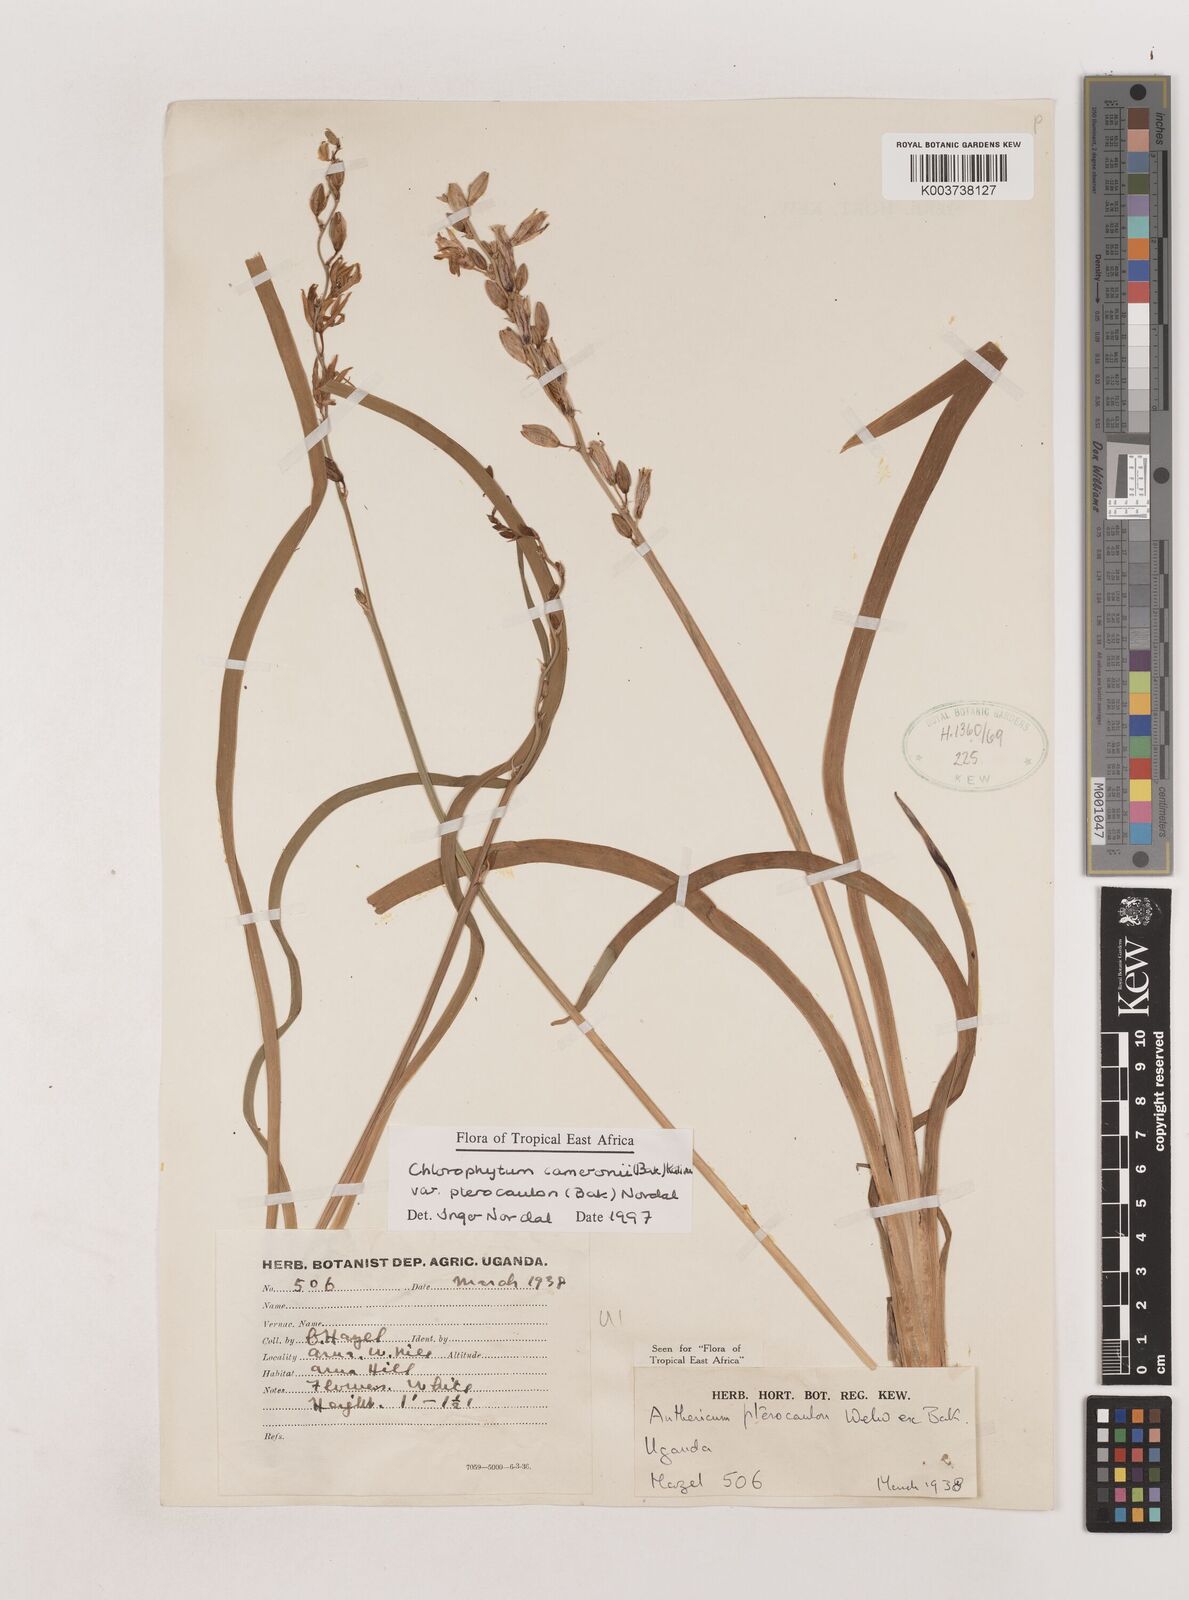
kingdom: Plantae
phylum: Tracheophyta
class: Liliopsida
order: Asparagales
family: Asparagaceae
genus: Chlorophytum
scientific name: Chlorophytum cameronii
